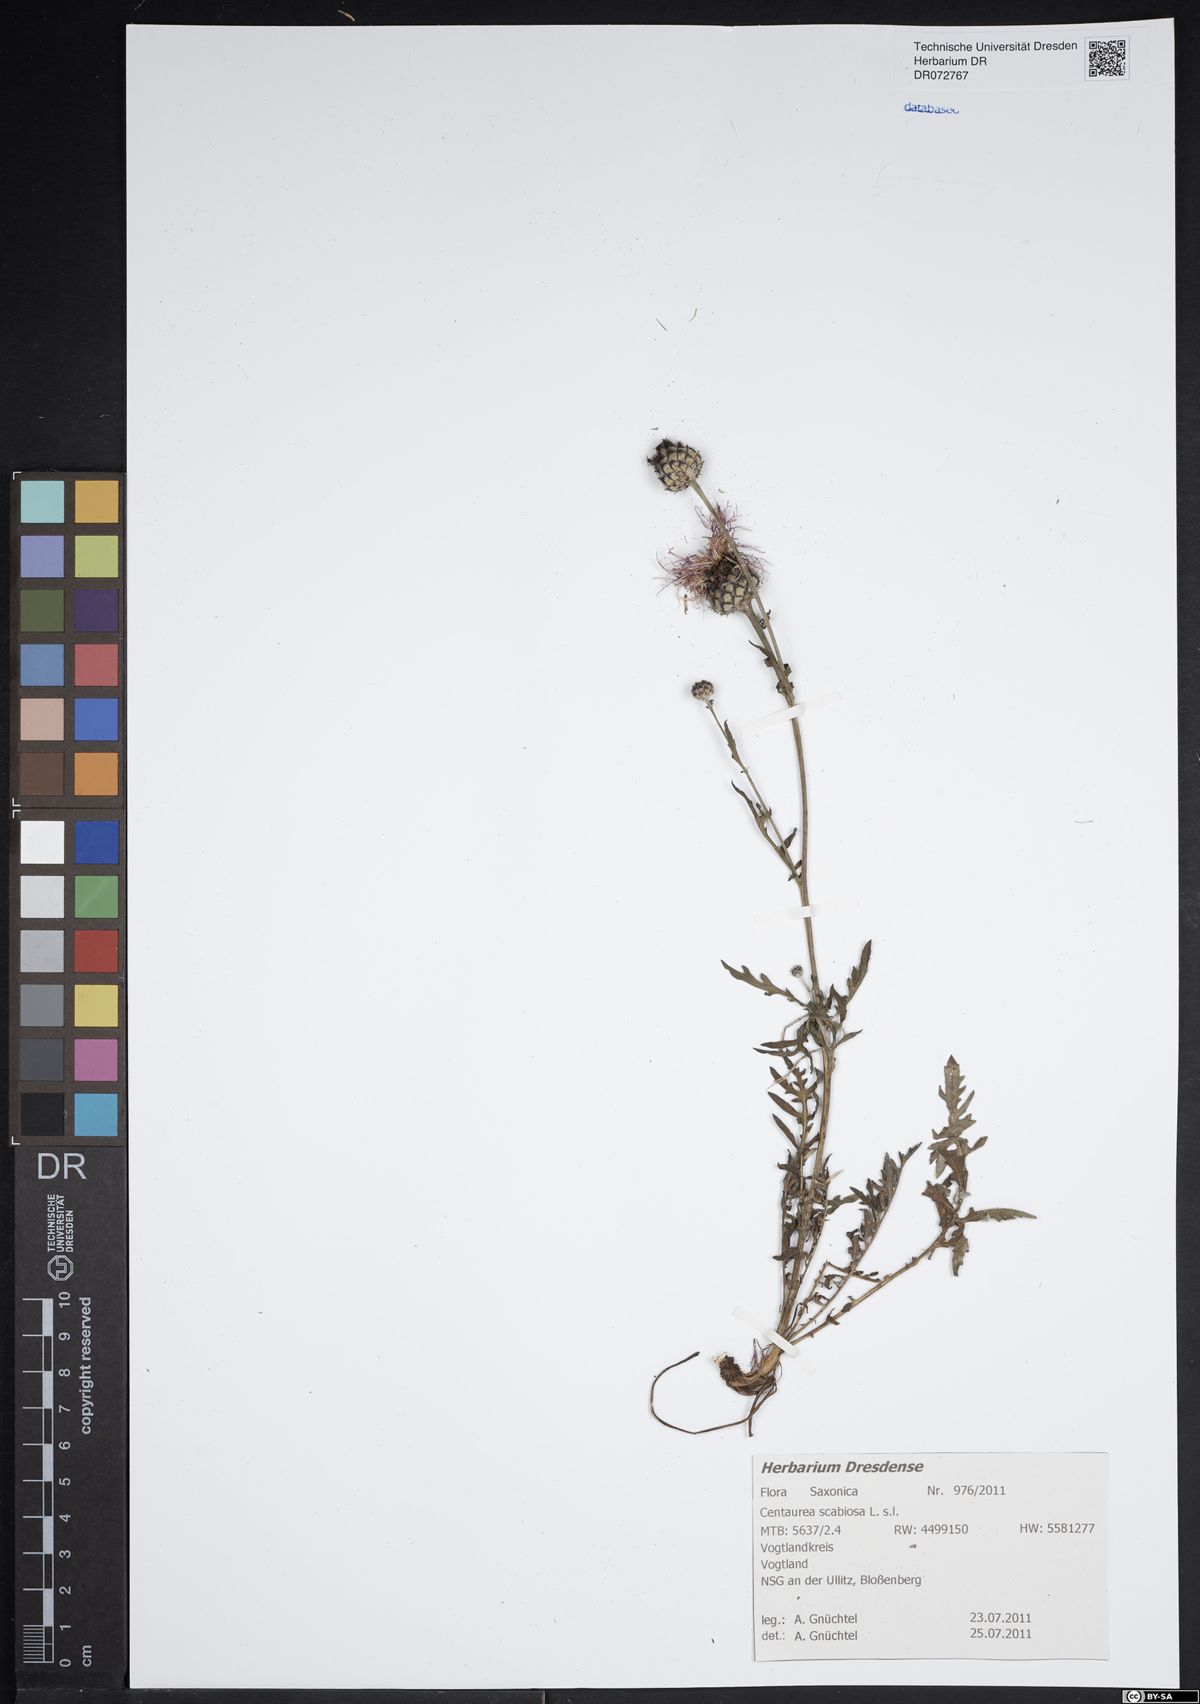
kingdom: Plantae
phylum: Tracheophyta
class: Magnoliopsida
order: Asterales
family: Asteraceae
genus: Centaurea
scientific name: Centaurea scabiosa
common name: Greater knapweed
